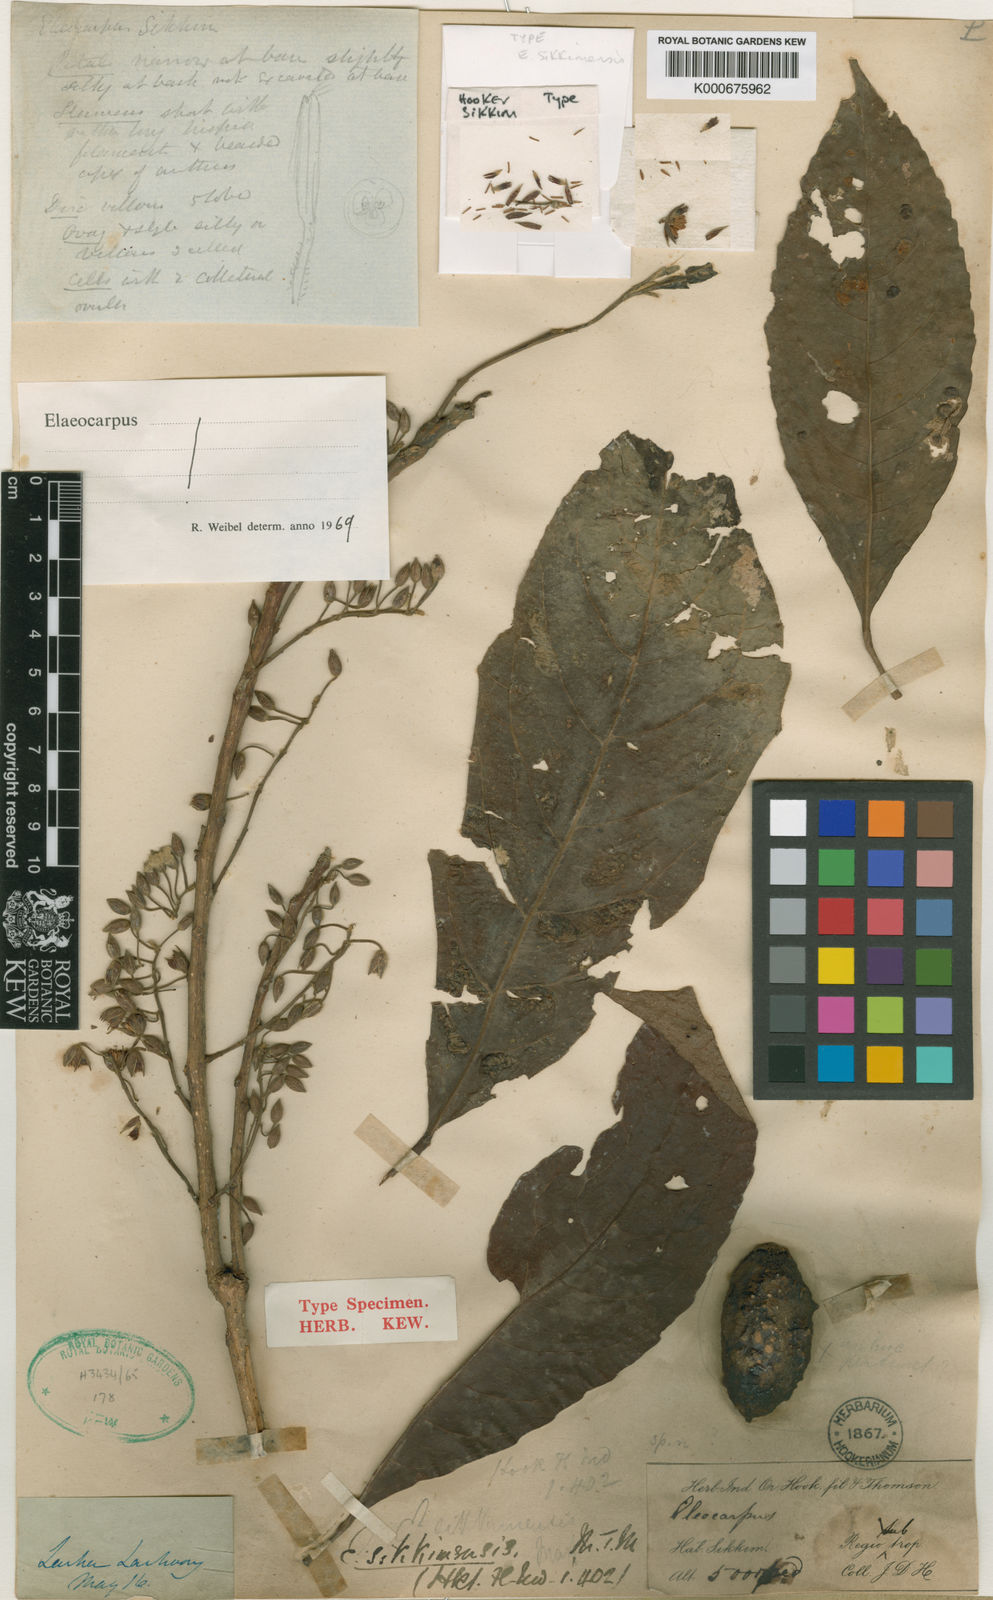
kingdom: Plantae
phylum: Tracheophyta
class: Magnoliopsida
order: Oxalidales
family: Elaeocarpaceae
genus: Elaeocarpus
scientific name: Elaeocarpus sikkimensis
